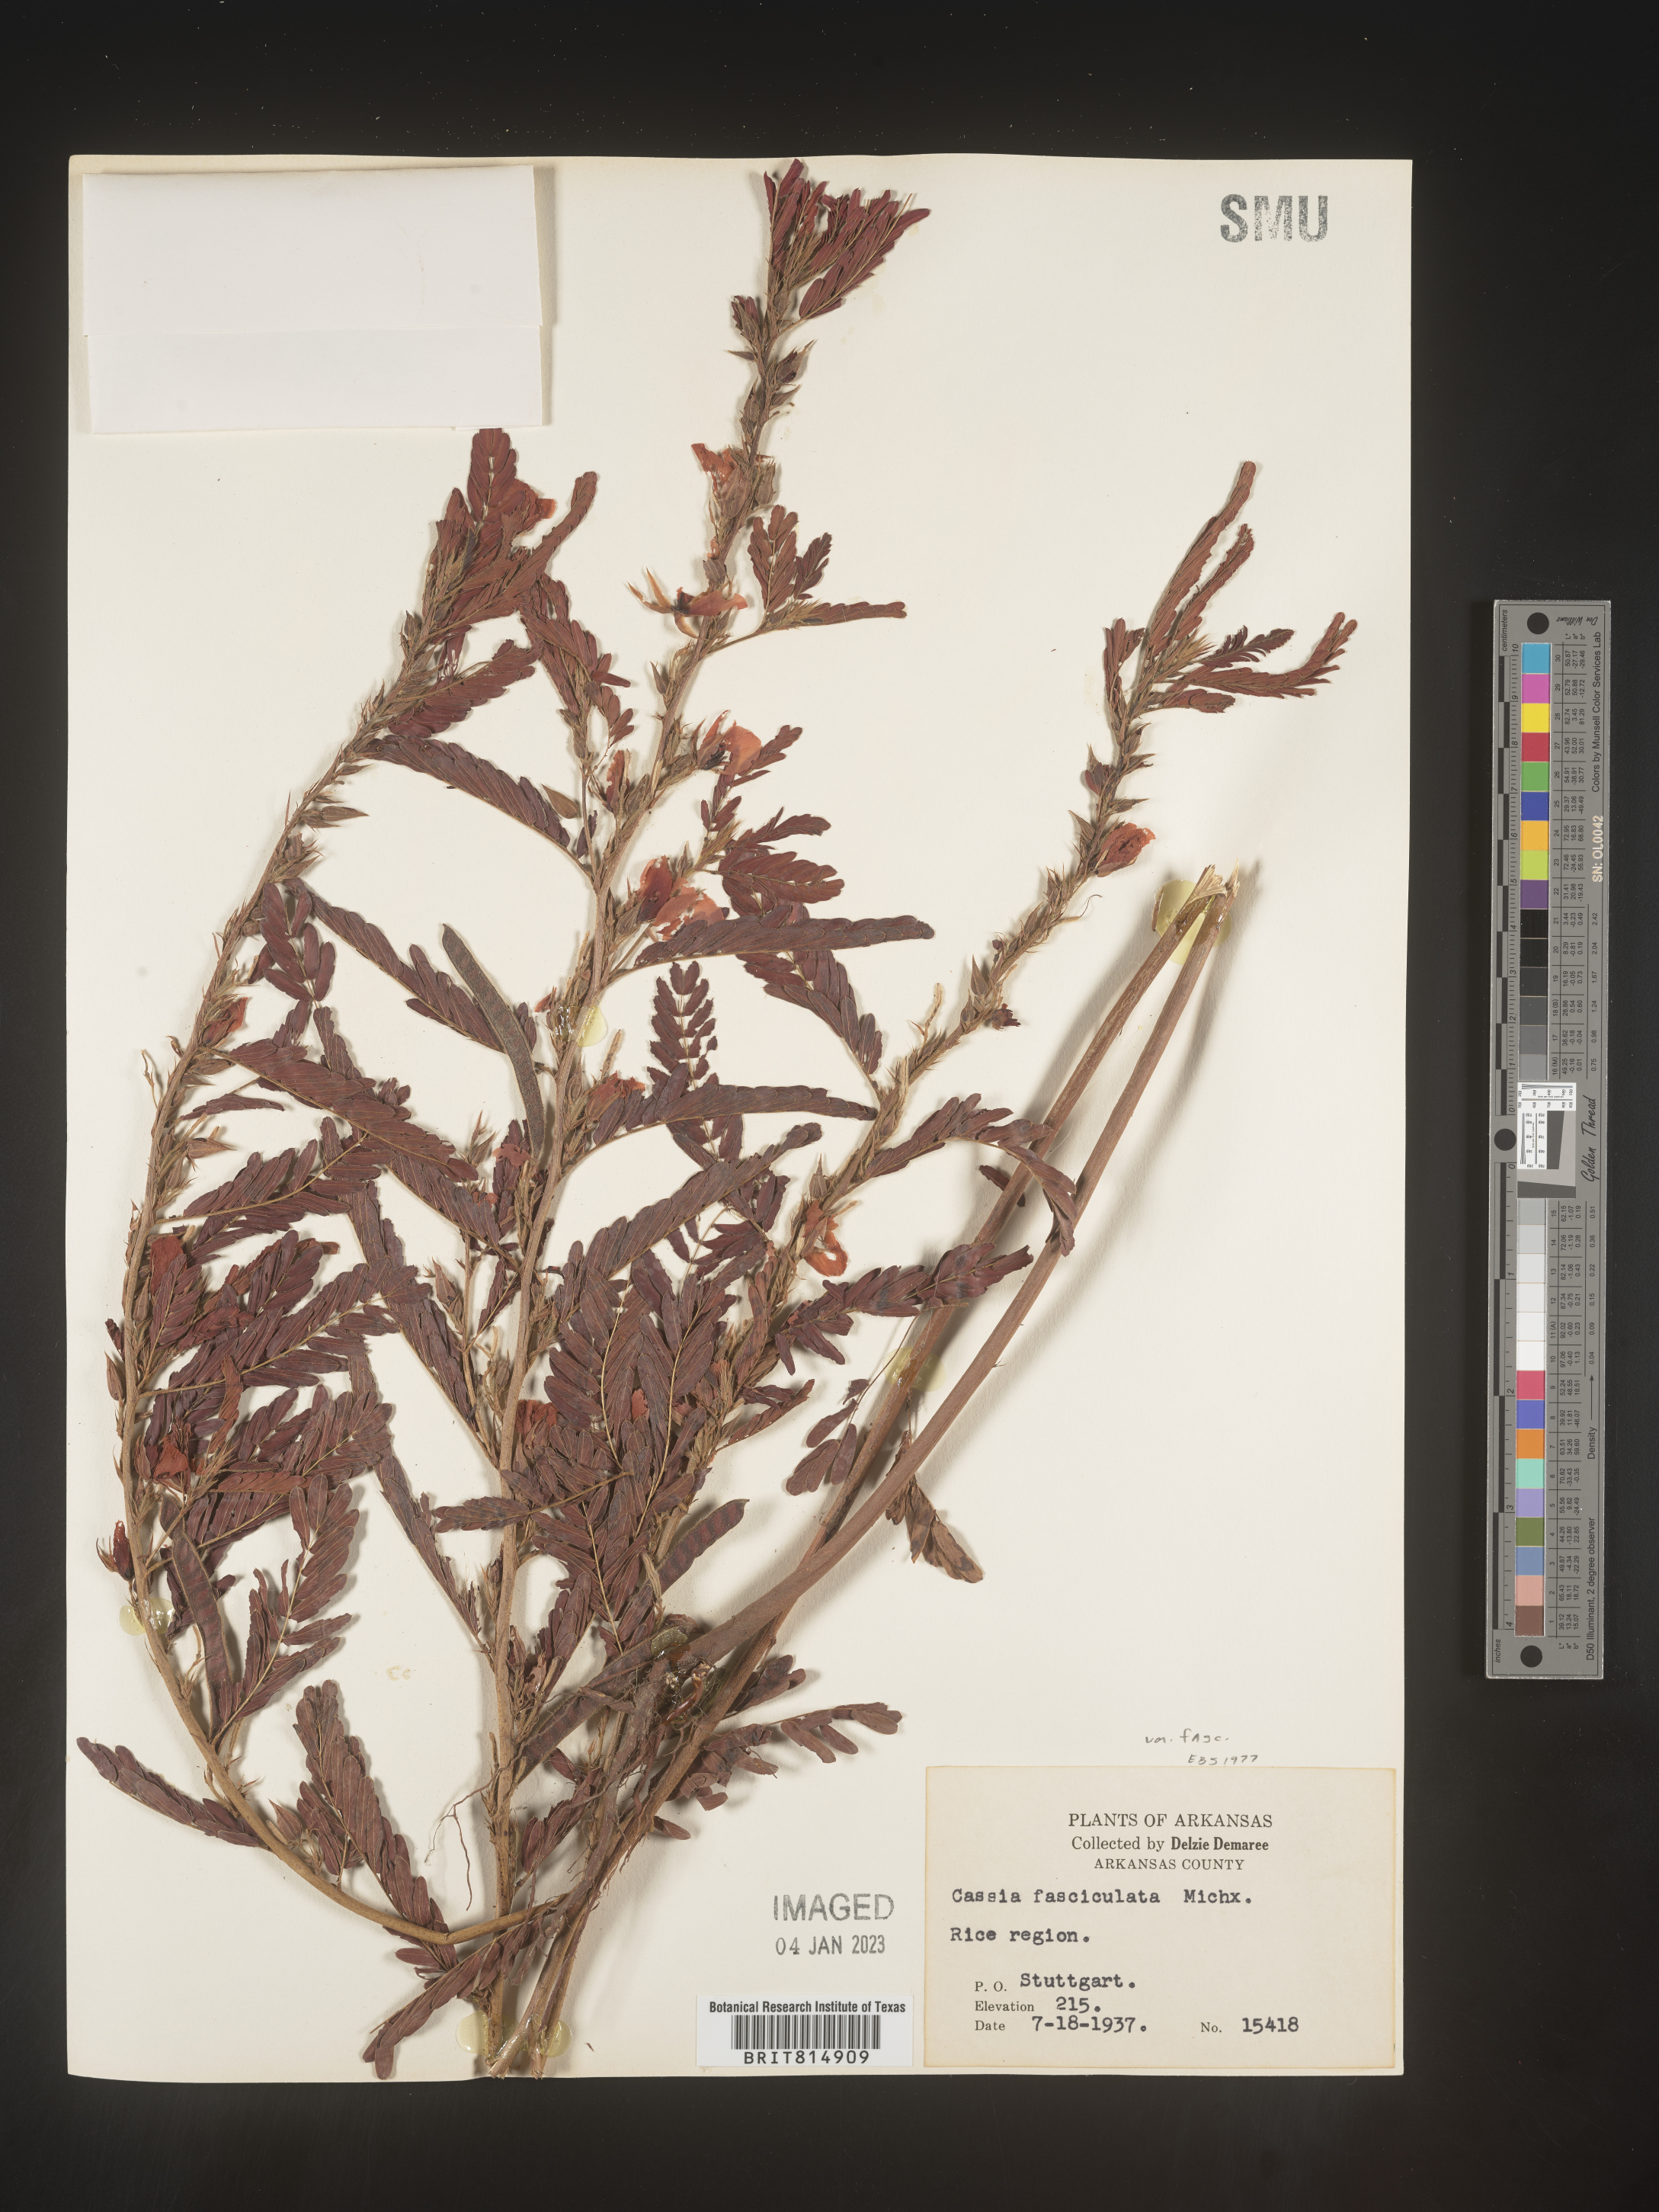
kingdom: Plantae
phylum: Tracheophyta
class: Magnoliopsida
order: Fabales
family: Fabaceae
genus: Chamaecrista
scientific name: Chamaecrista fasciculata
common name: Golden cassia
